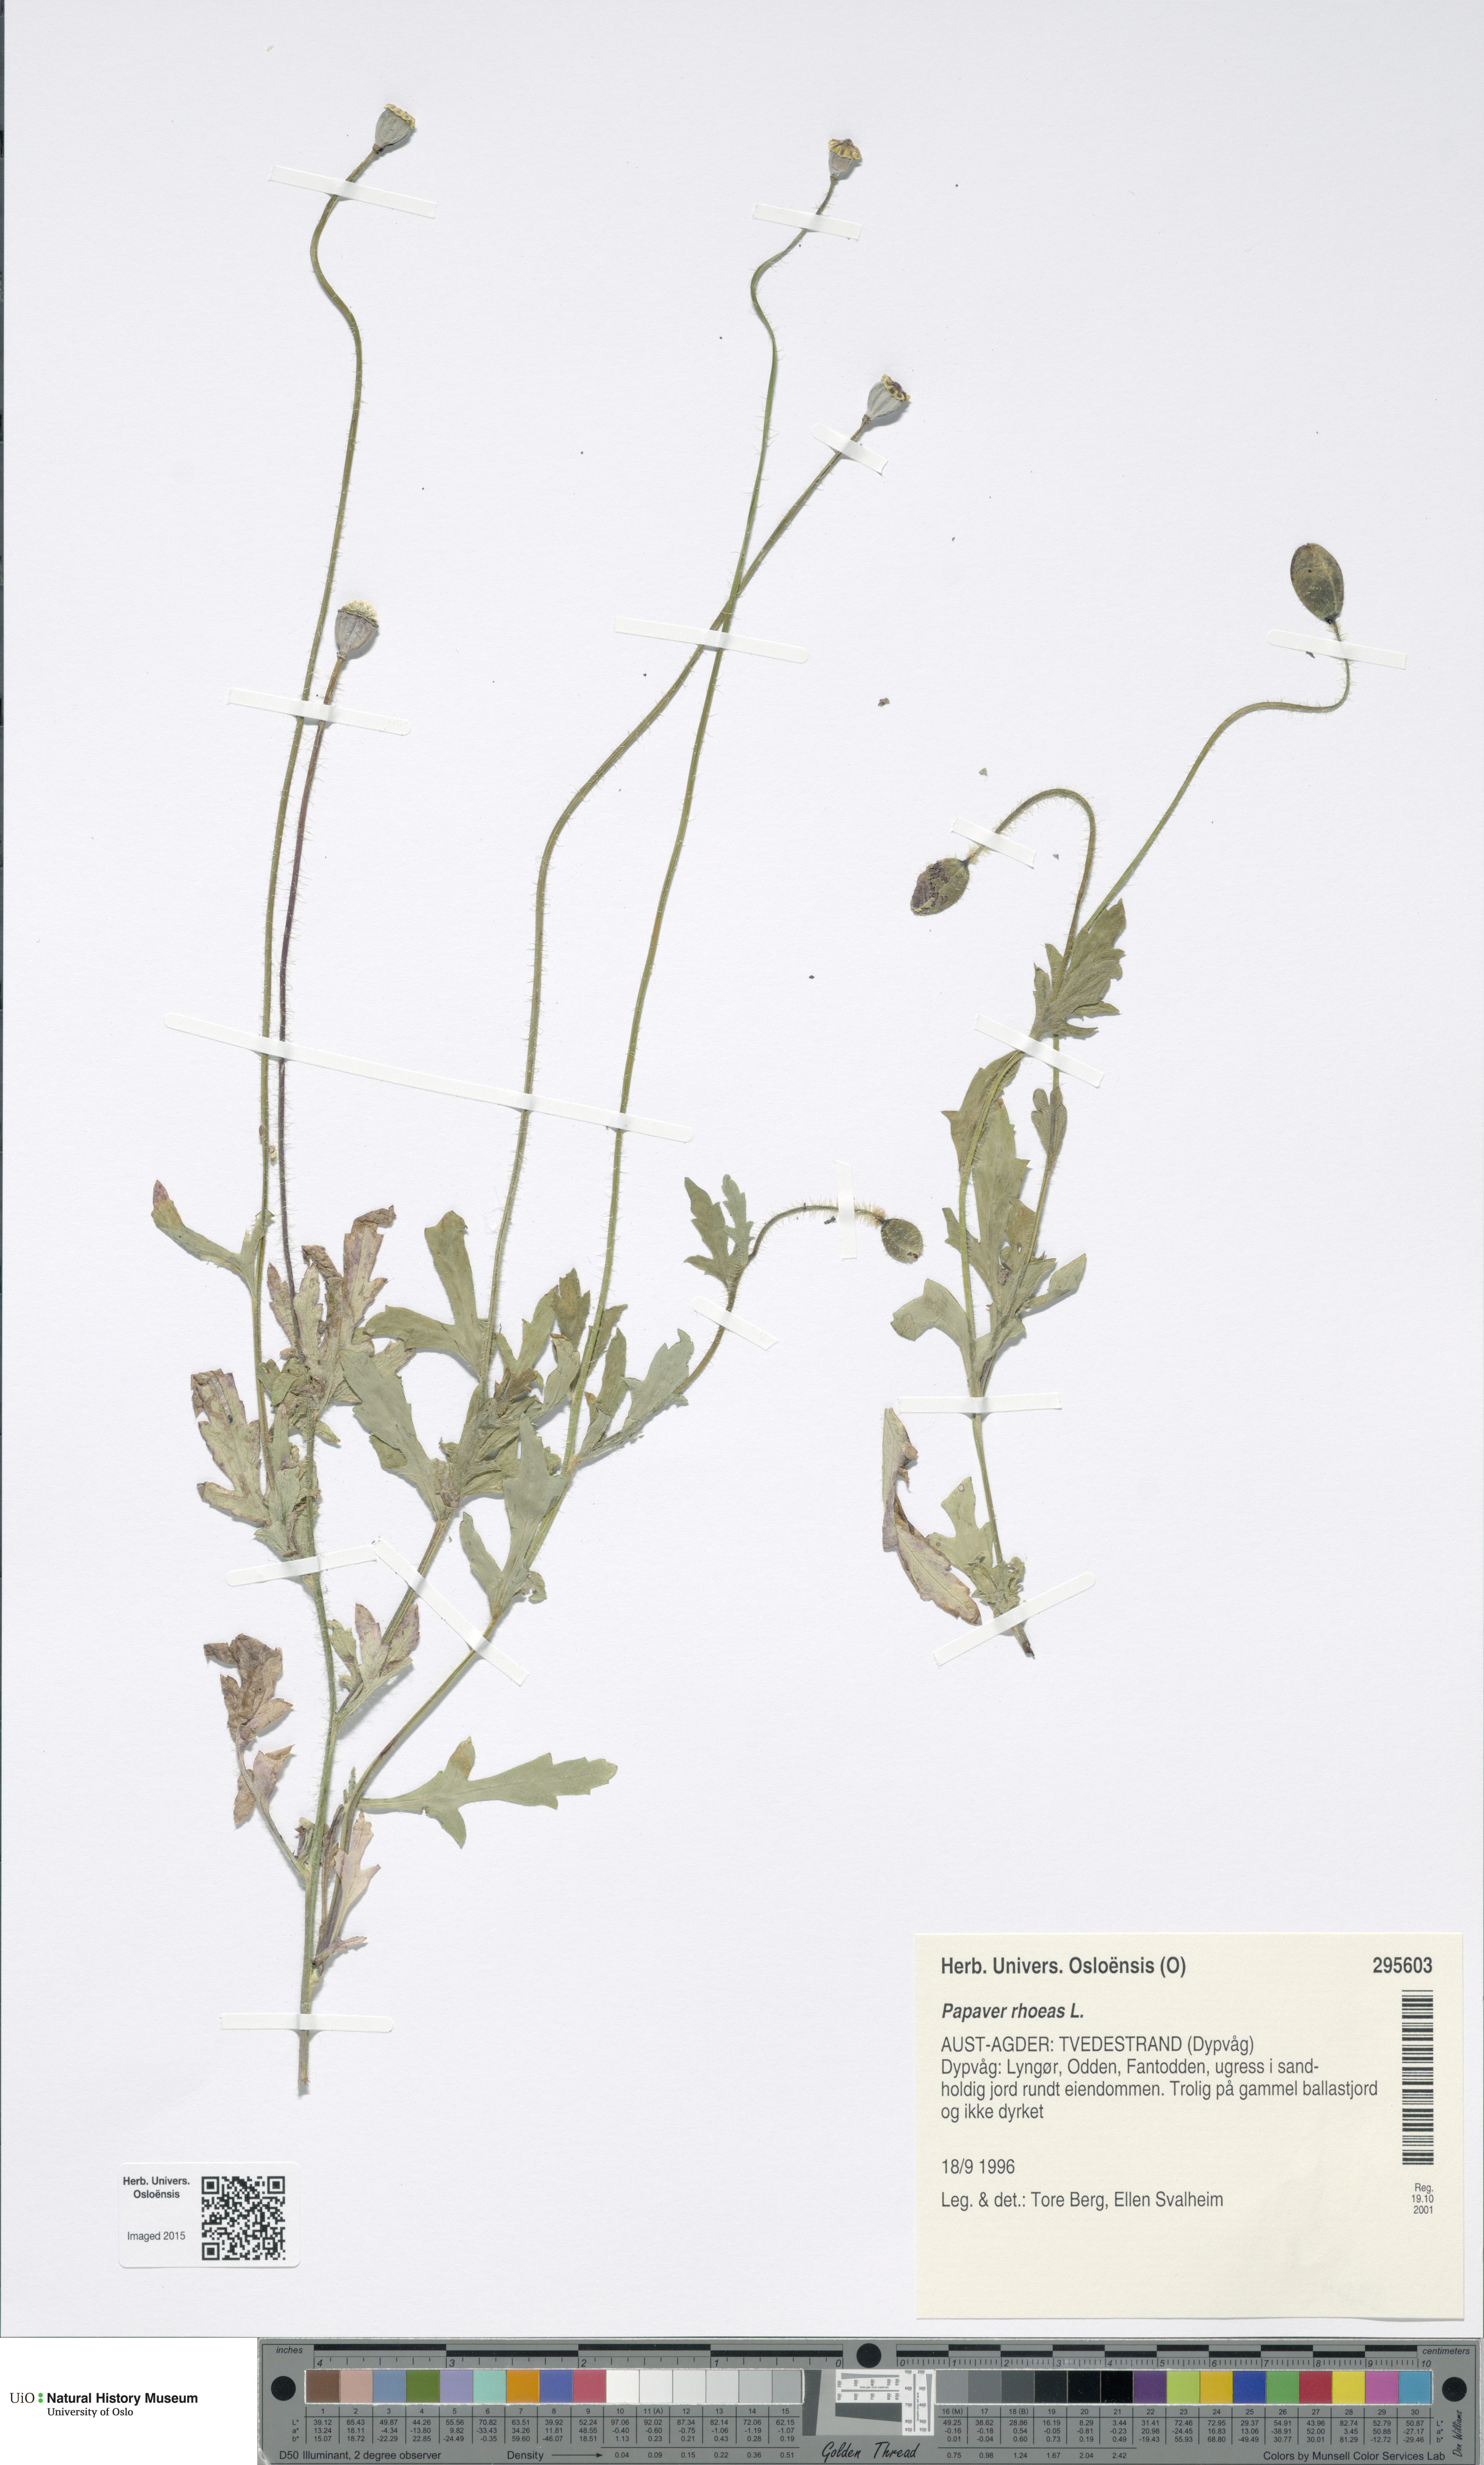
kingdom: Plantae
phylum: Tracheophyta
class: Magnoliopsida
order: Ranunculales
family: Papaveraceae
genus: Papaver
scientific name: Papaver rhoeas
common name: Corn poppy
